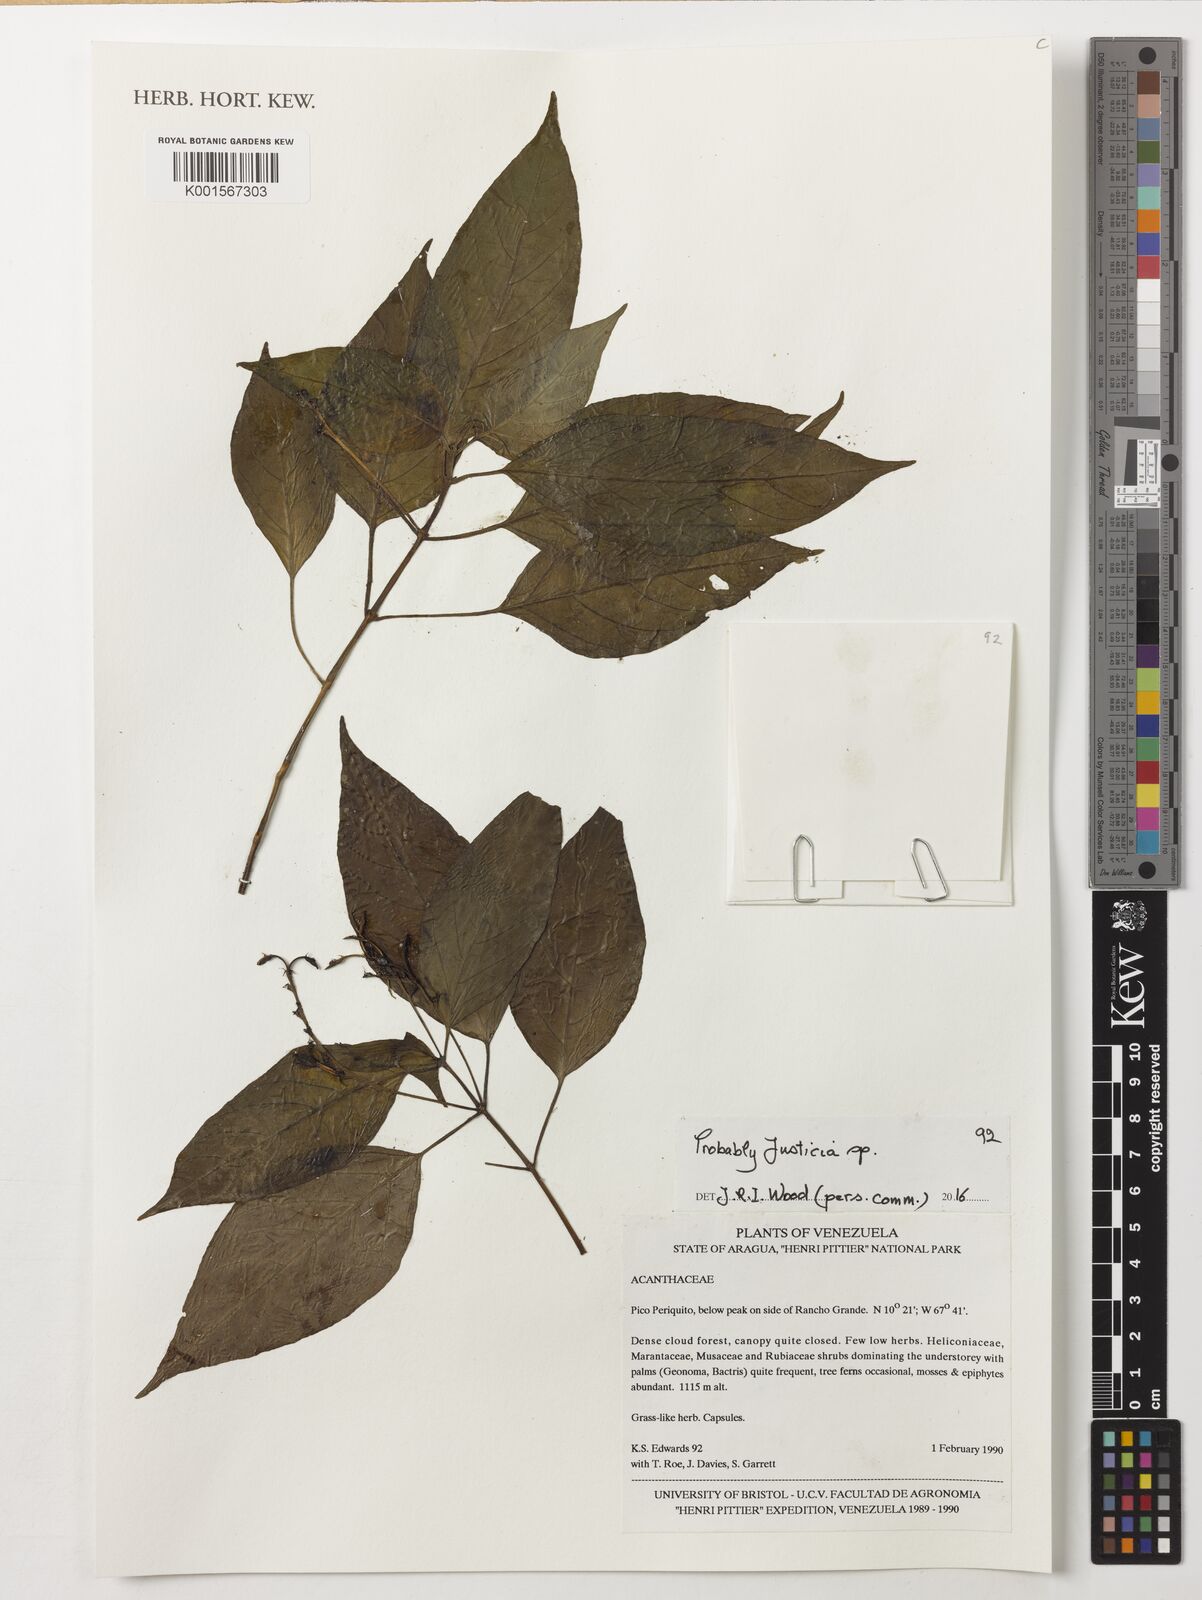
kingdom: Plantae
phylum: Tracheophyta
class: Magnoliopsida
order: Lamiales
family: Acanthaceae
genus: Justicia
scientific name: Justicia
